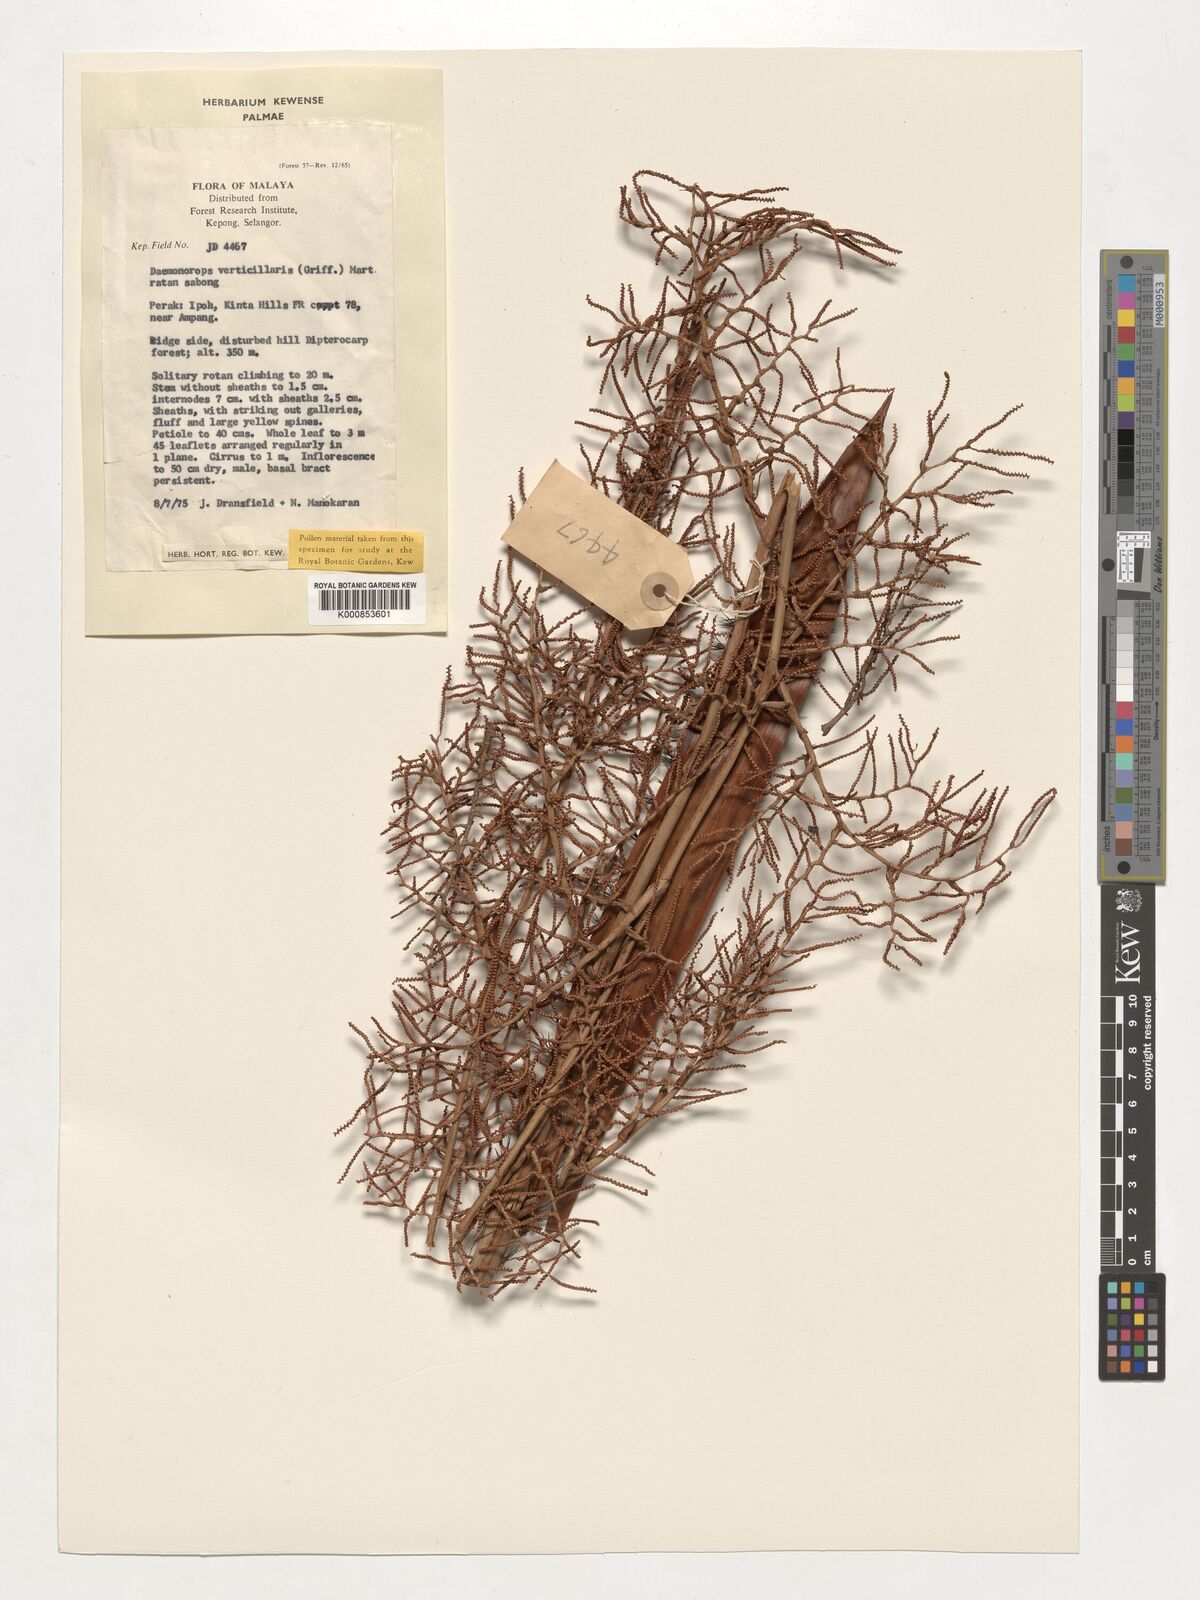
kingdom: Plantae
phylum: Tracheophyta
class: Liliopsida
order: Arecales
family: Arecaceae
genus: Calamus
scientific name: Calamus verticillaris
